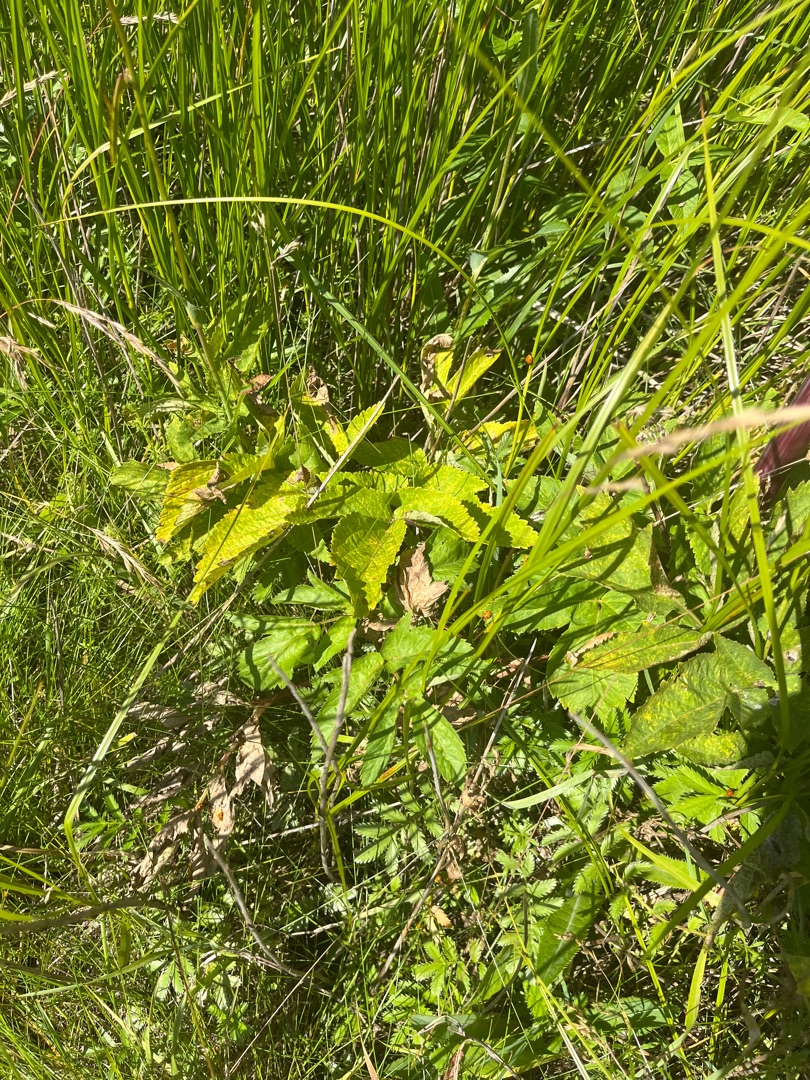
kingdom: Plantae
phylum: Tracheophyta
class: Magnoliopsida
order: Apiales
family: Apiaceae
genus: Angelica
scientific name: Angelica archangelica
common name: Kvan
